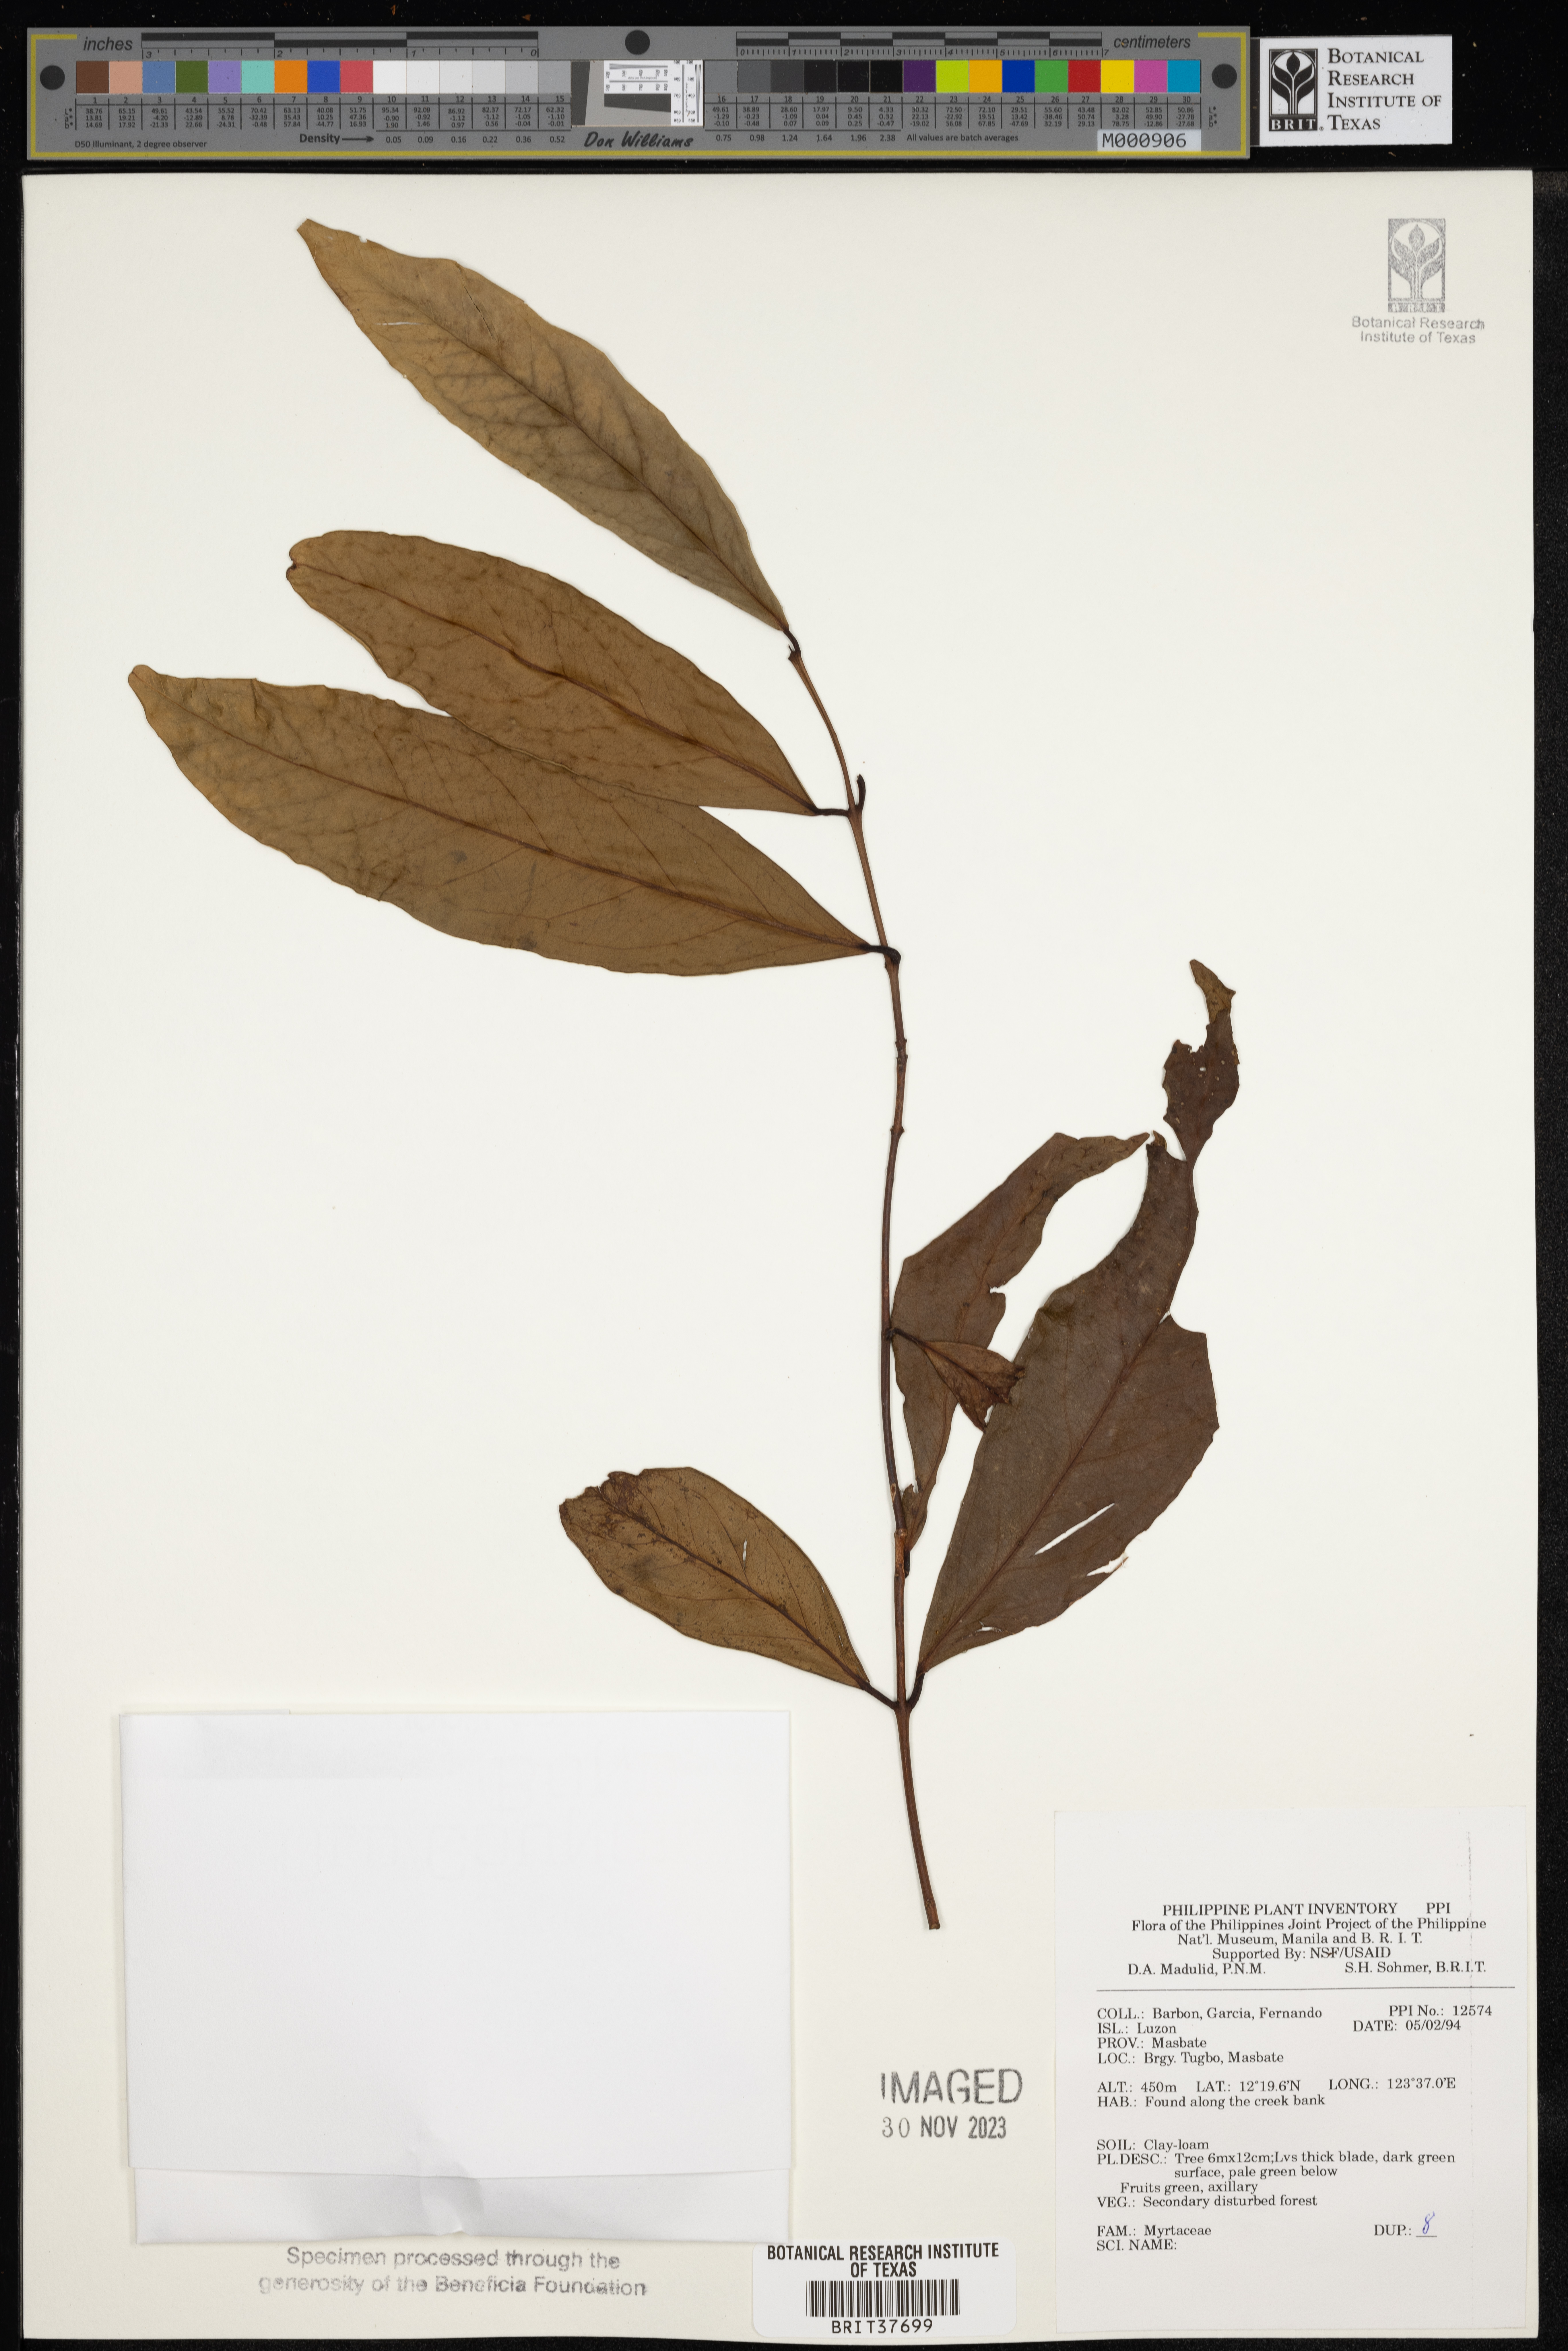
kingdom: Plantae
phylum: Tracheophyta
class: Magnoliopsida
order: Myrtales
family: Myrtaceae
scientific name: Myrtaceae
